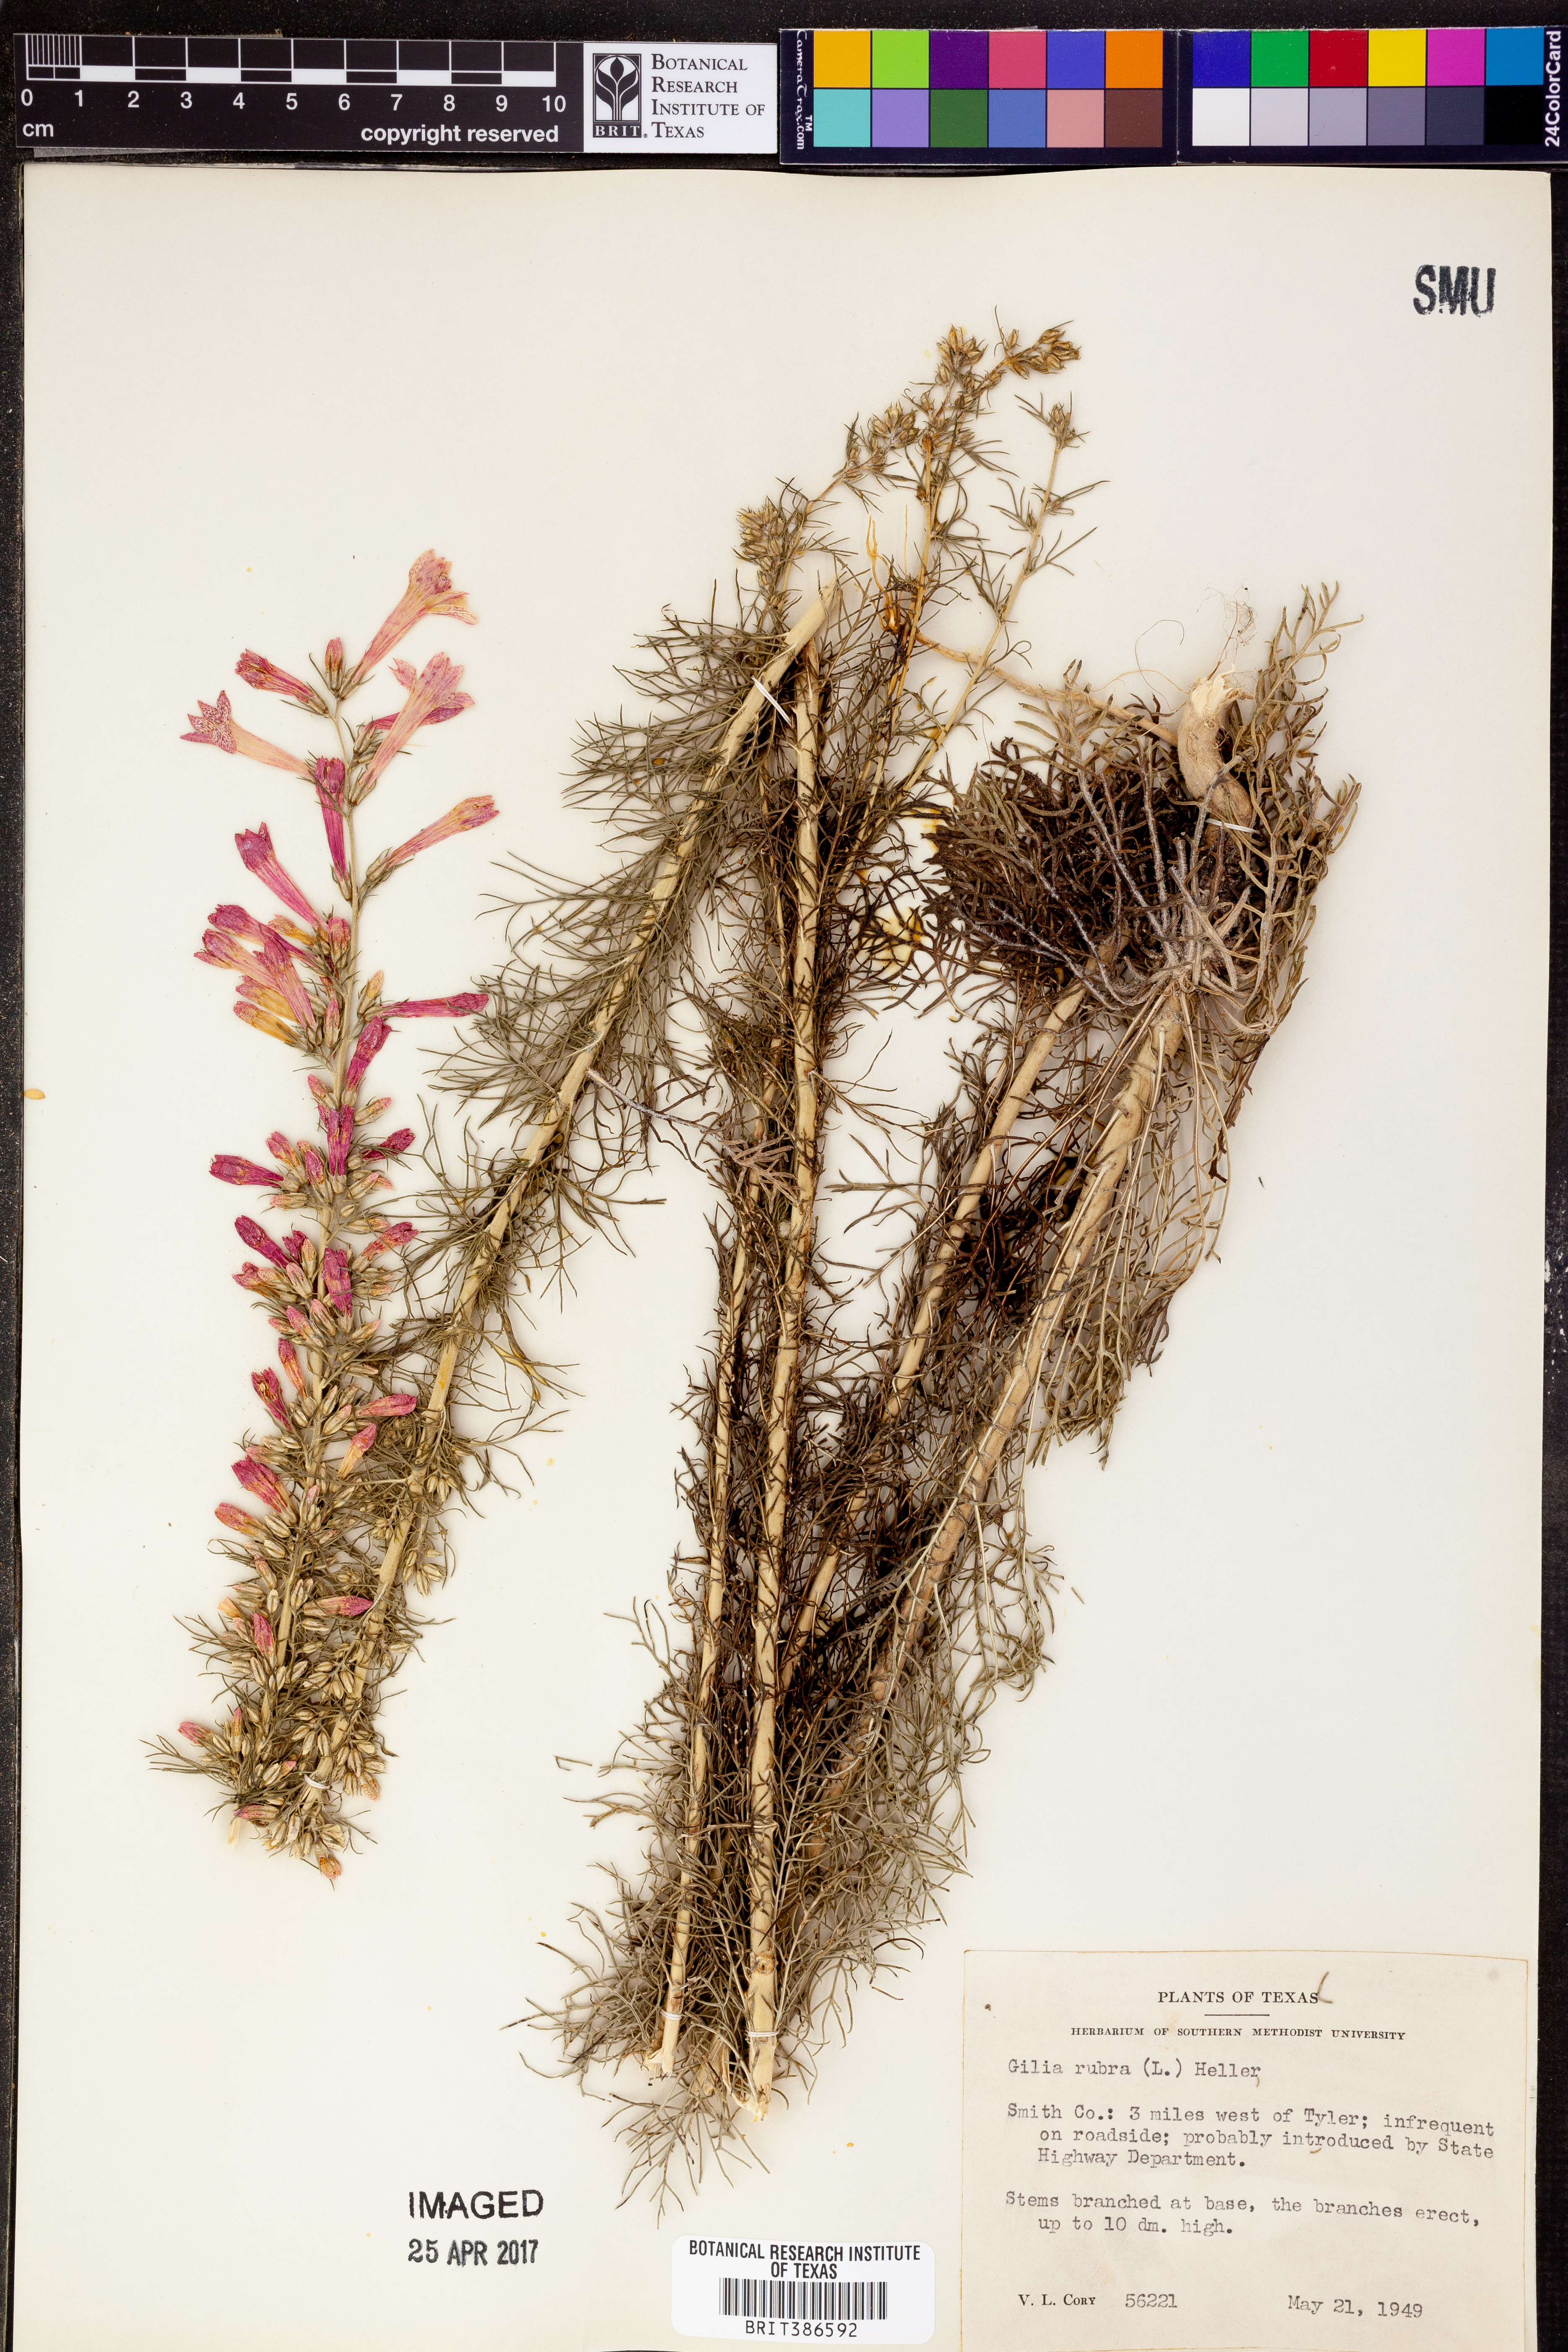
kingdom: Plantae
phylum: Tracheophyta
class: Magnoliopsida
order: Ericales
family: Polemoniaceae
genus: Ipomopsis
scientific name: Ipomopsis rubra
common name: Skyrocket
